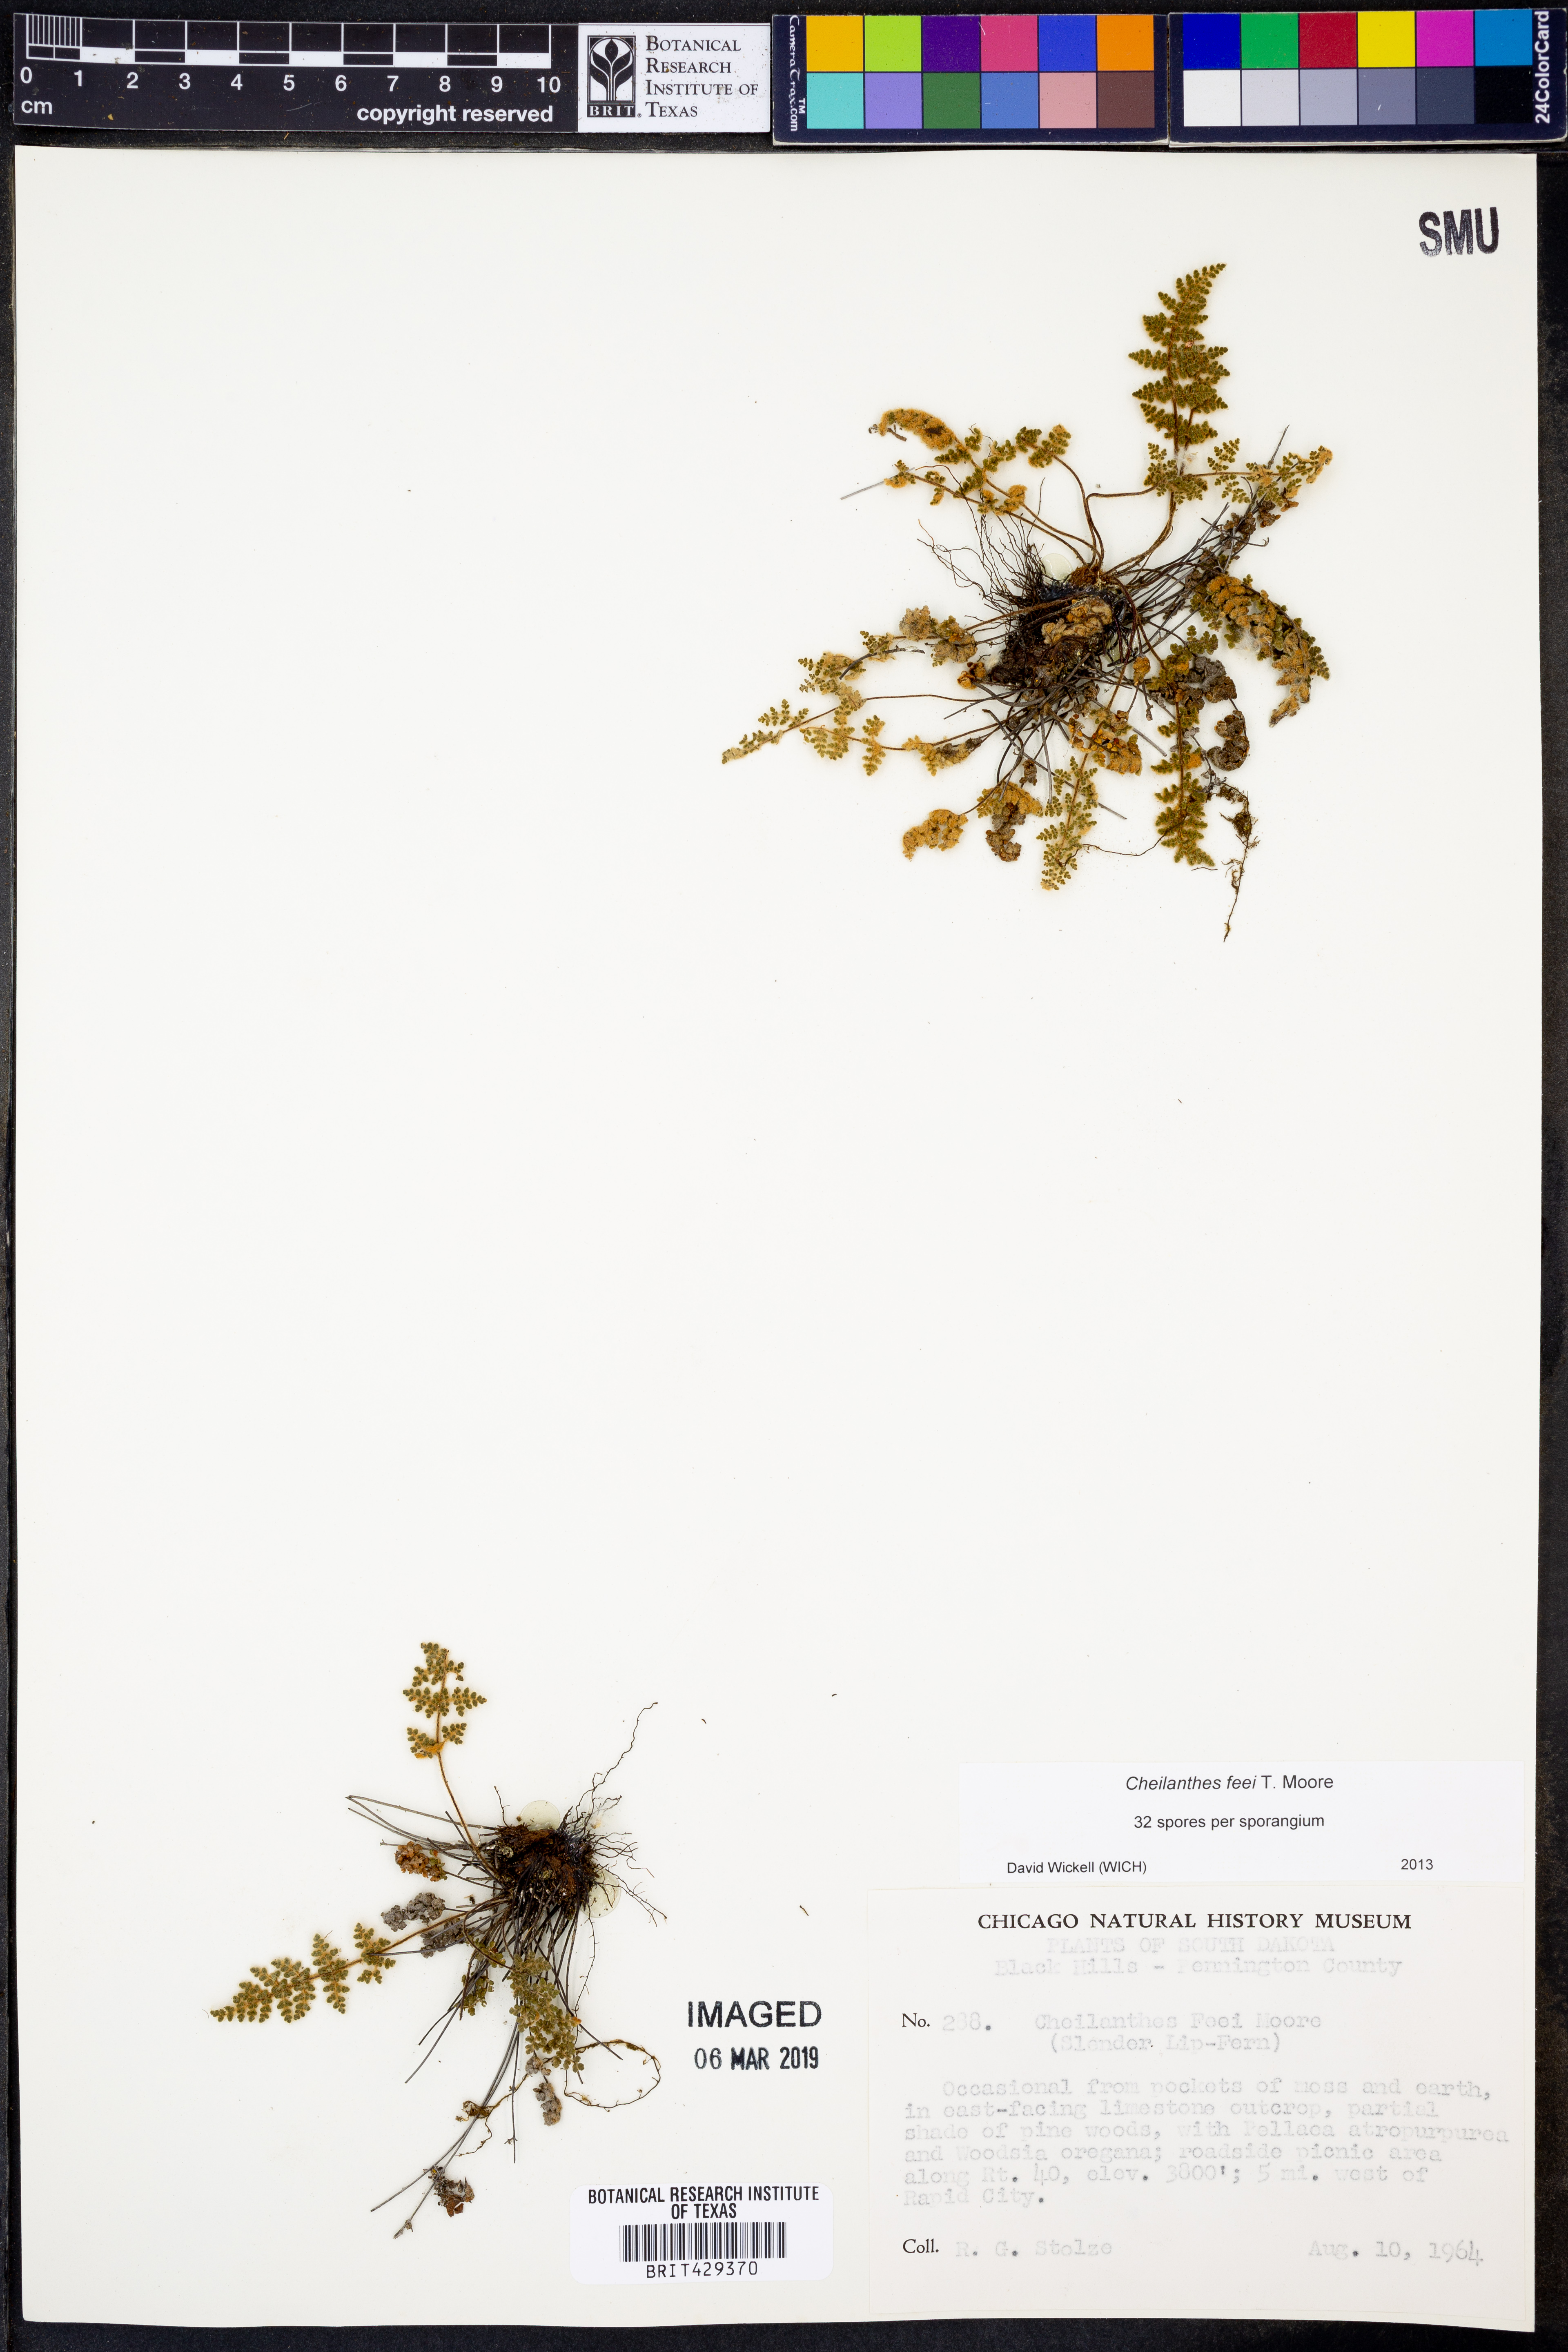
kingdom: Plantae
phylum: Tracheophyta
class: Polypodiopsida
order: Polypodiales
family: Pteridaceae
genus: Myriopteris
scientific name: Myriopteris gracilis
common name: Fee's lip fern
